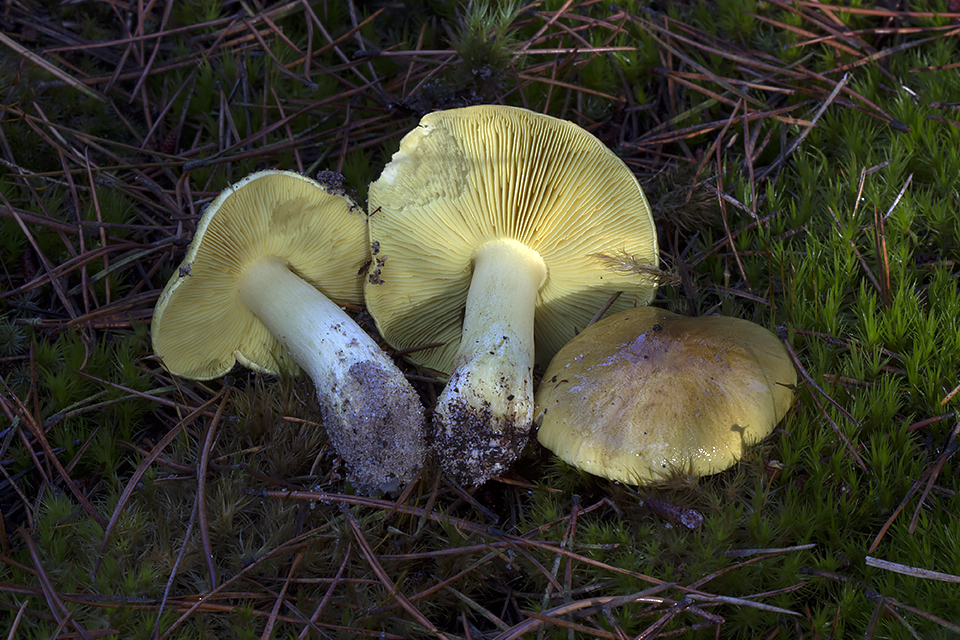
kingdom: Fungi
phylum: Basidiomycota
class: Agaricomycetes
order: Agaricales
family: Tricholomataceae
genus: Tricholoma
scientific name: Tricholoma equestre
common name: ægte ridderhat
